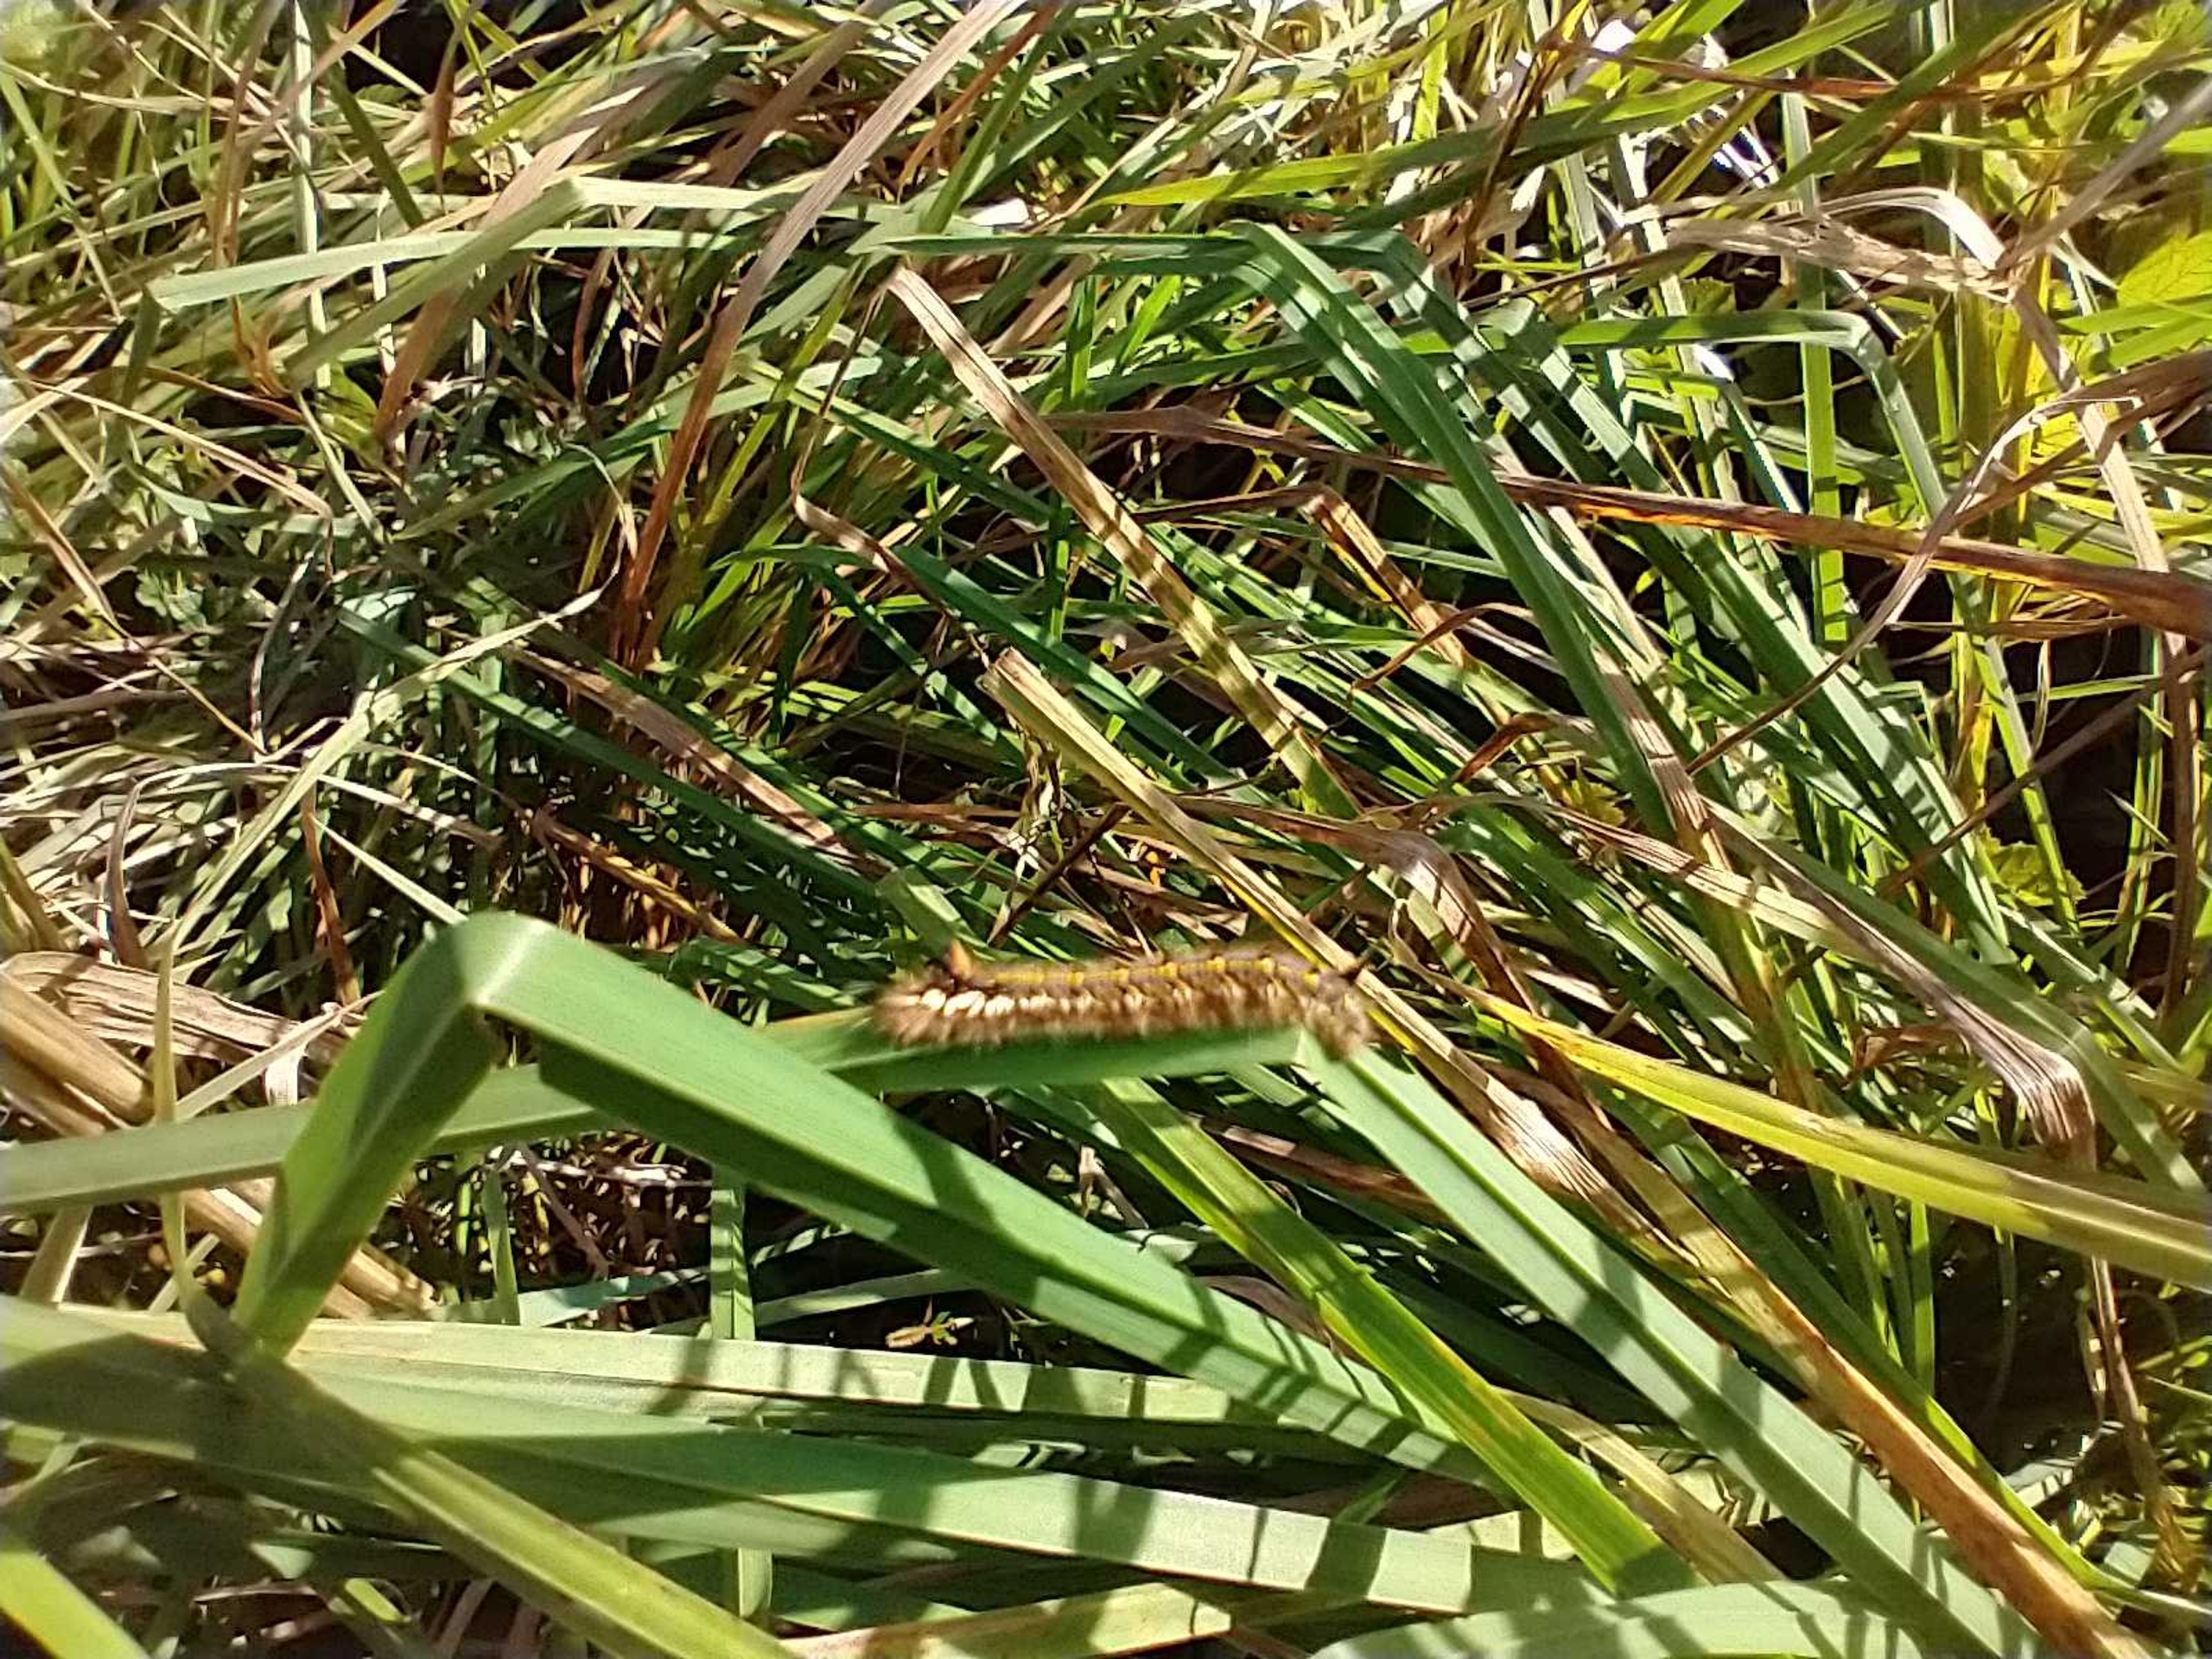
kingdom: Animalia
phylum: Arthropoda
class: Insecta
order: Lepidoptera
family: Lasiocampidae
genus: Euthrix
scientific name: Euthrix potatoria
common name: Græsspinder
